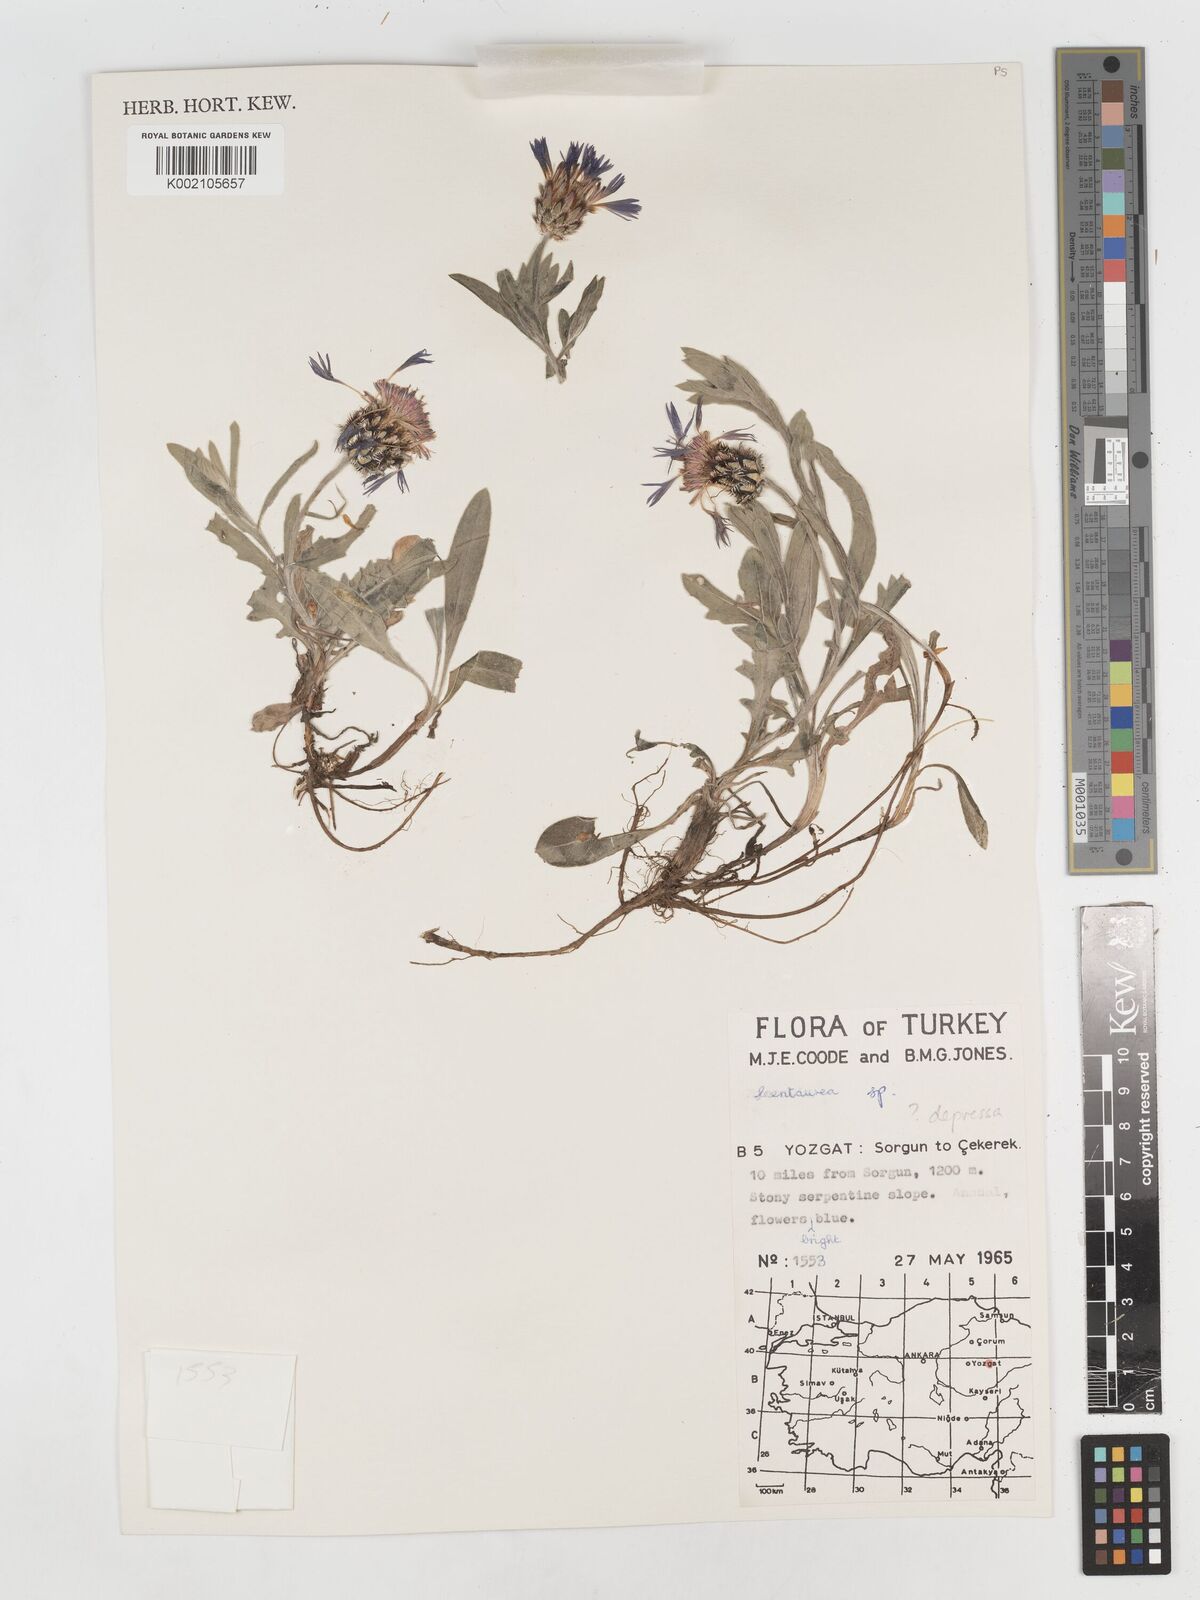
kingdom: Plantae
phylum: Tracheophyta
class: Magnoliopsida
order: Asterales
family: Asteraceae
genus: Centaurea
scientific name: Centaurea depressa
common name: Iranian knapweed
